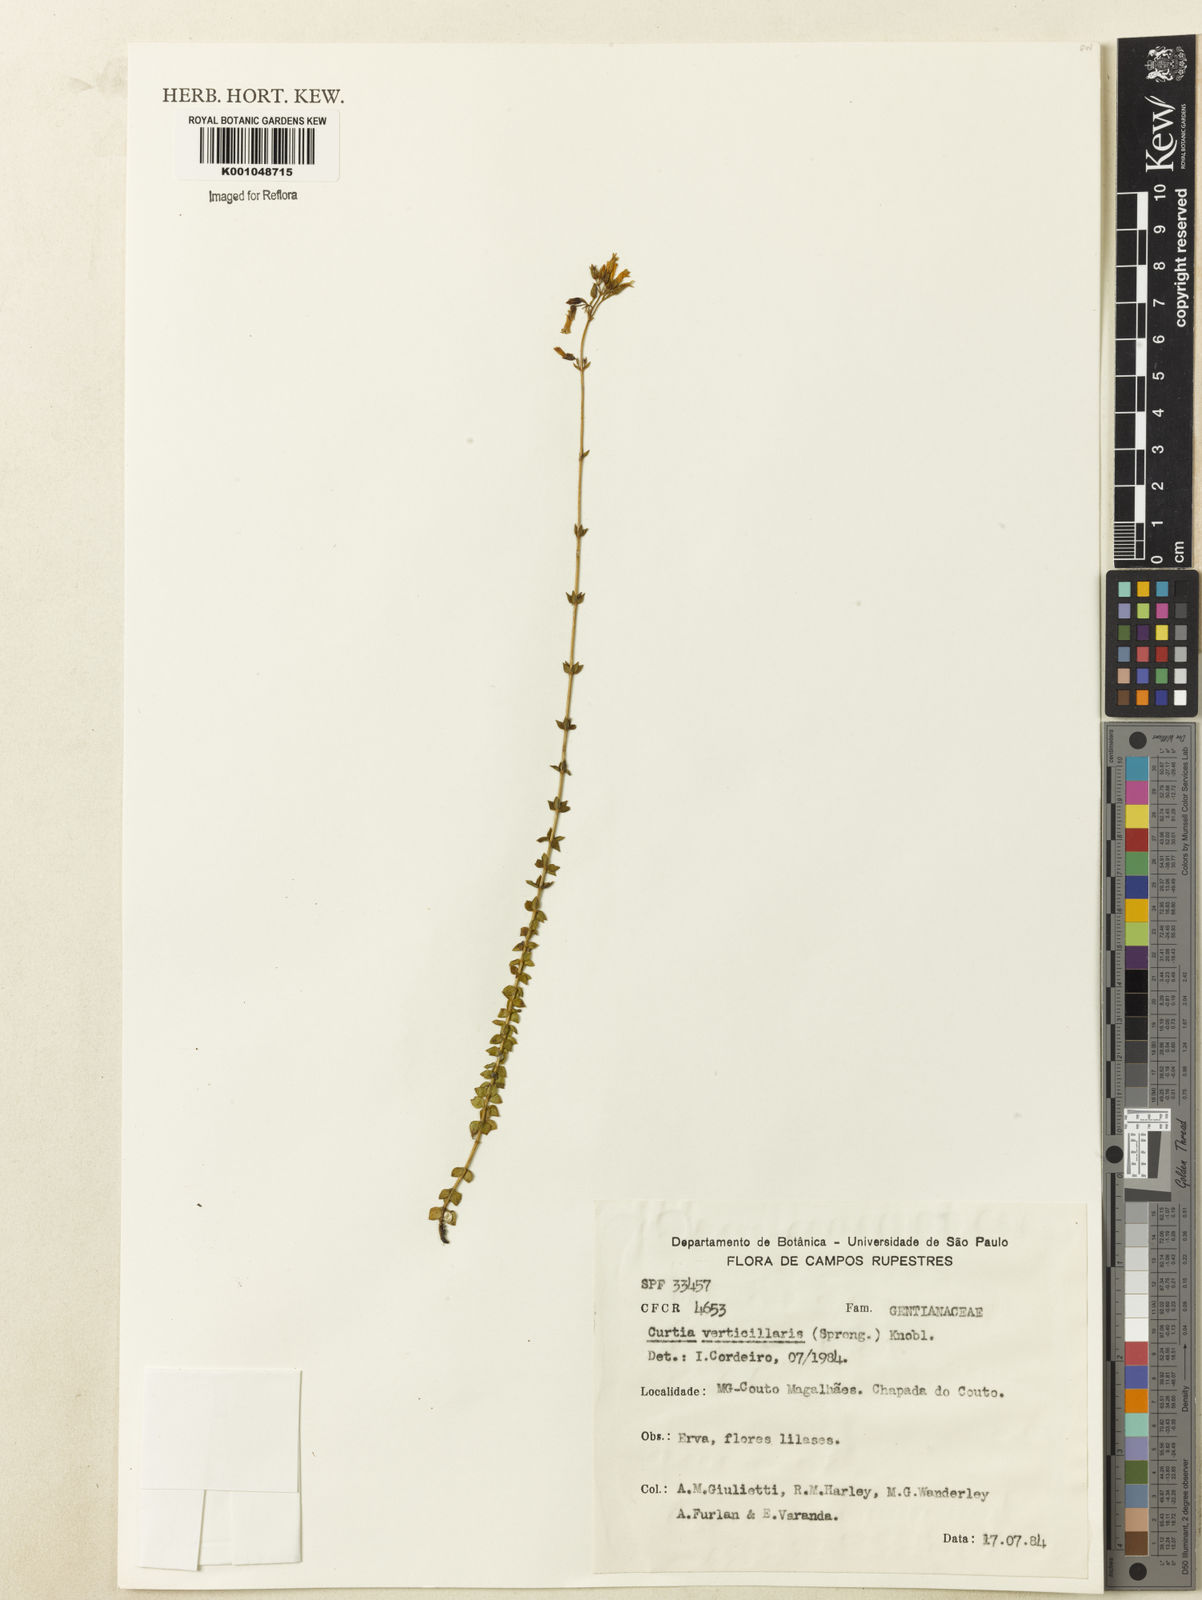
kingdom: Plantae
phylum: Tracheophyta
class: Magnoliopsida
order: Gentianales
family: Gentianaceae
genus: Curtia
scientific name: Curtia verticillaris
